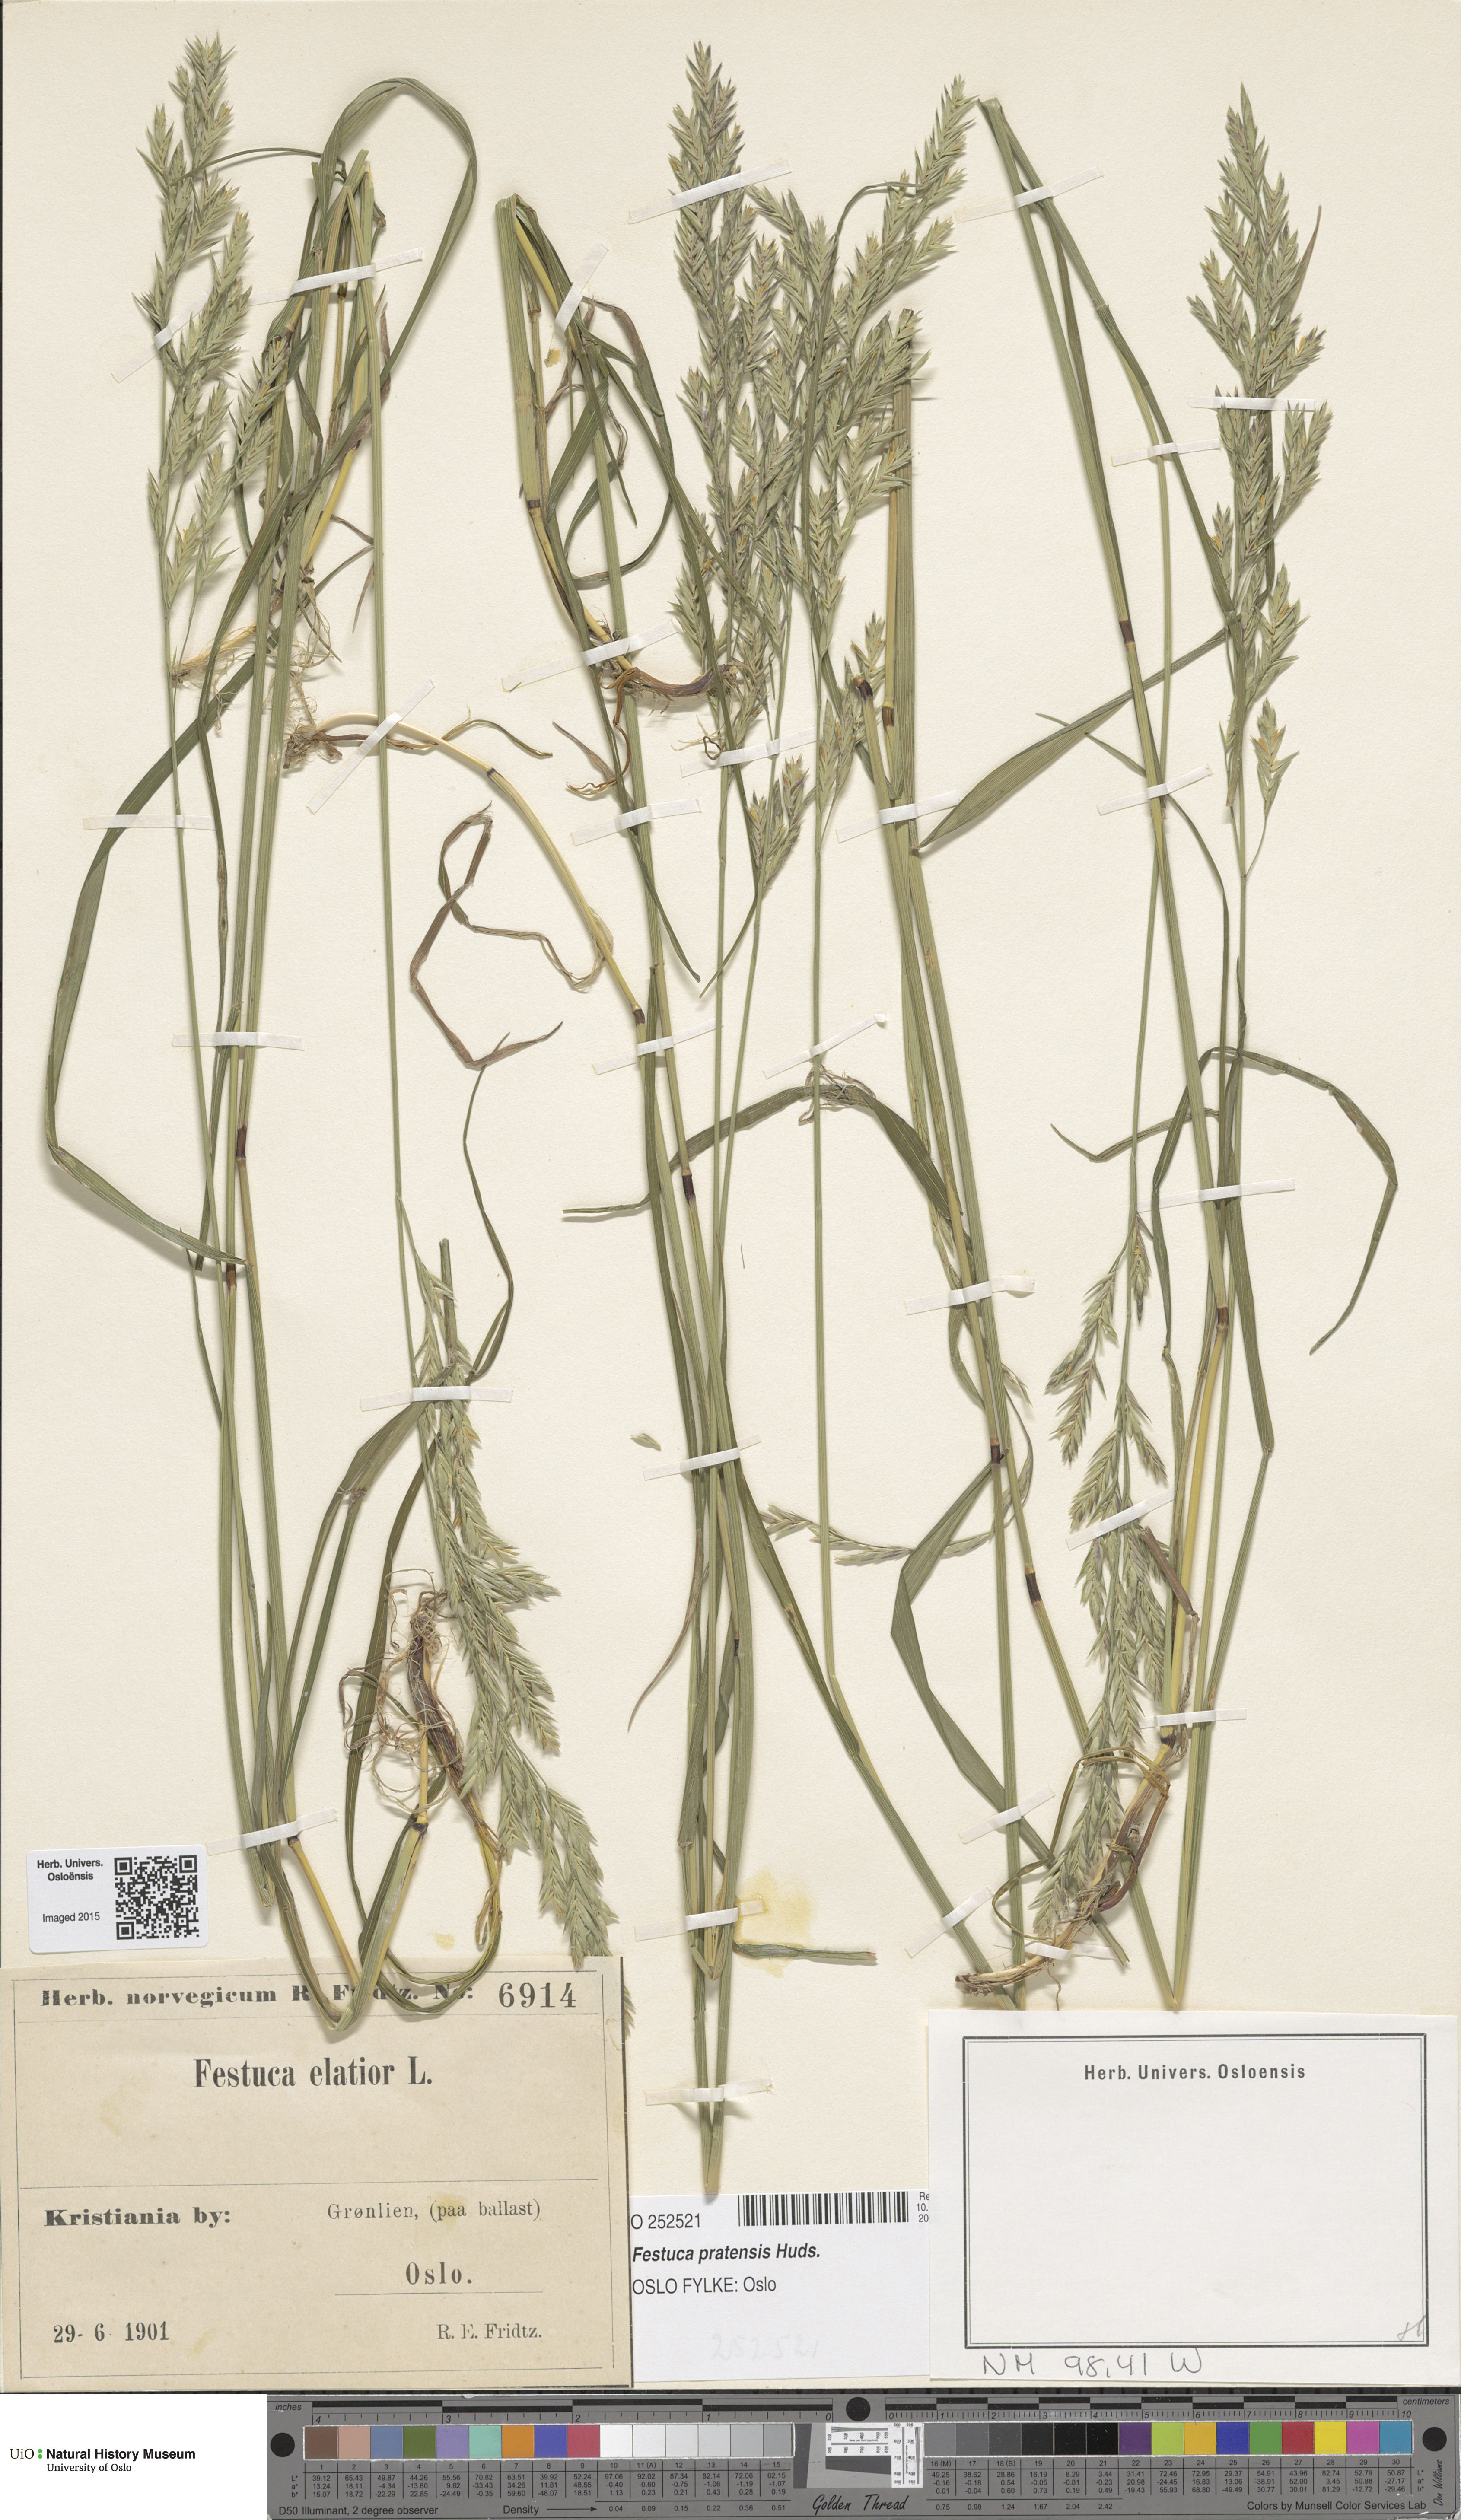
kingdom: Plantae
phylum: Tracheophyta
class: Liliopsida
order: Poales
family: Poaceae
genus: Lolium
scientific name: Lolium pratense
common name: Dover grass
